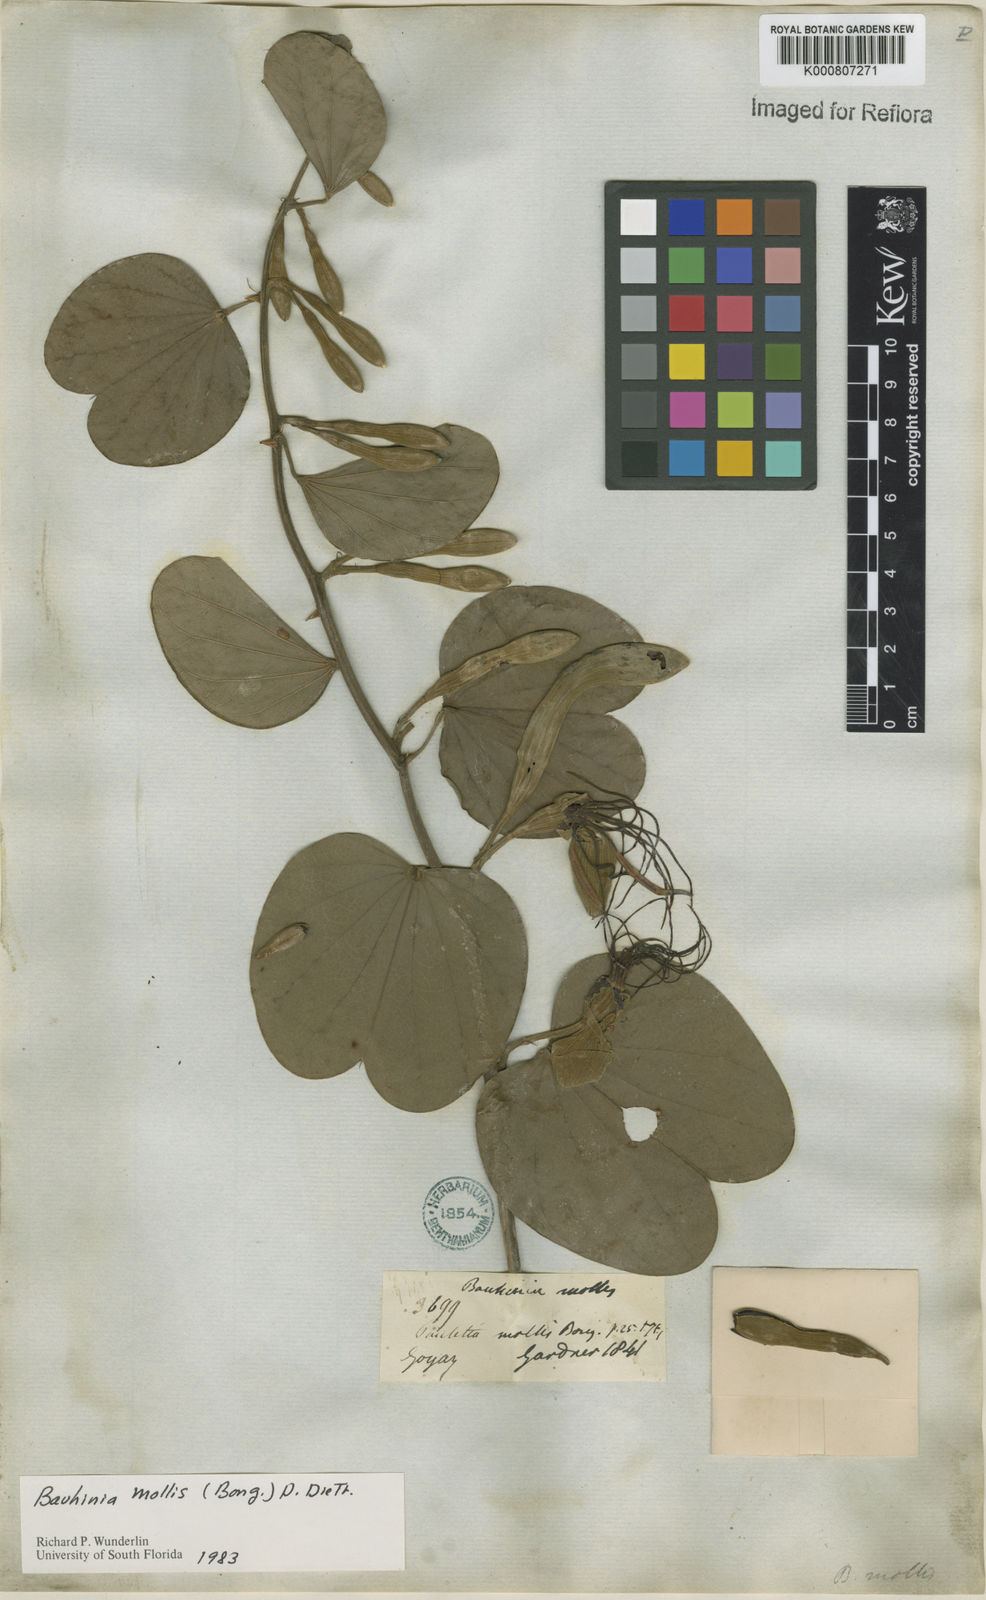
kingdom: Plantae
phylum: Tracheophyta
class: Magnoliopsida
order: Fabales
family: Fabaceae
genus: Bauhinia
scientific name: Bauhinia mollis
